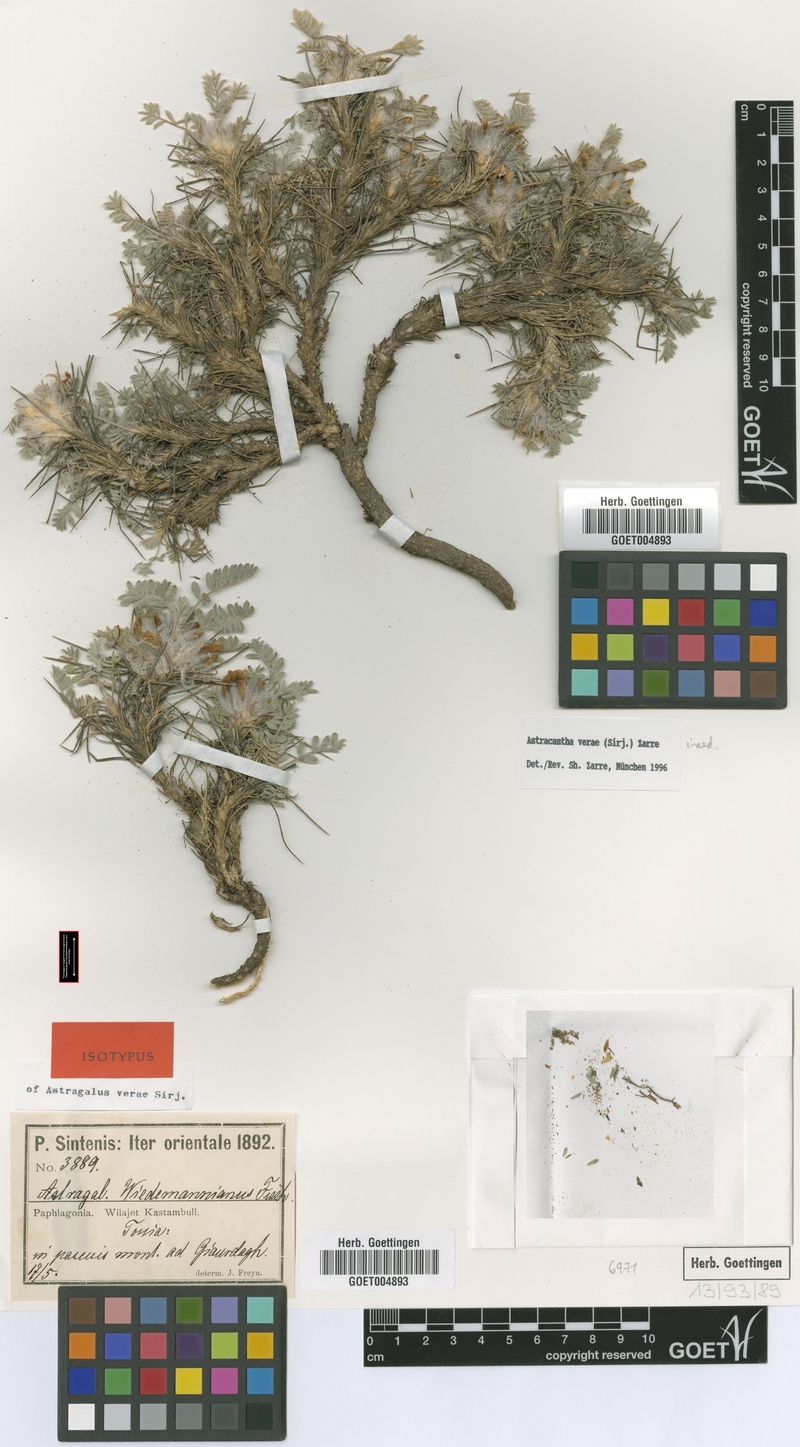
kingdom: Plantae
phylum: Tracheophyta
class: Magnoliopsida
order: Fabales
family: Fabaceae
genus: Astragalus
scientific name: Astragalus verae
